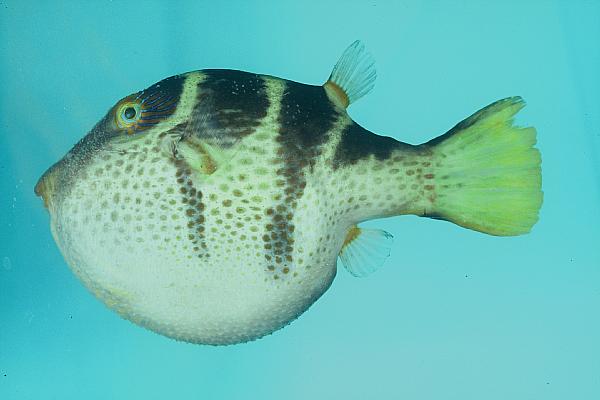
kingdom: Animalia
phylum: Chordata
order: Tetraodontiformes
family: Tetraodontidae
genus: Canthigaster
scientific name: Canthigaster valentini
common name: Banded toby
